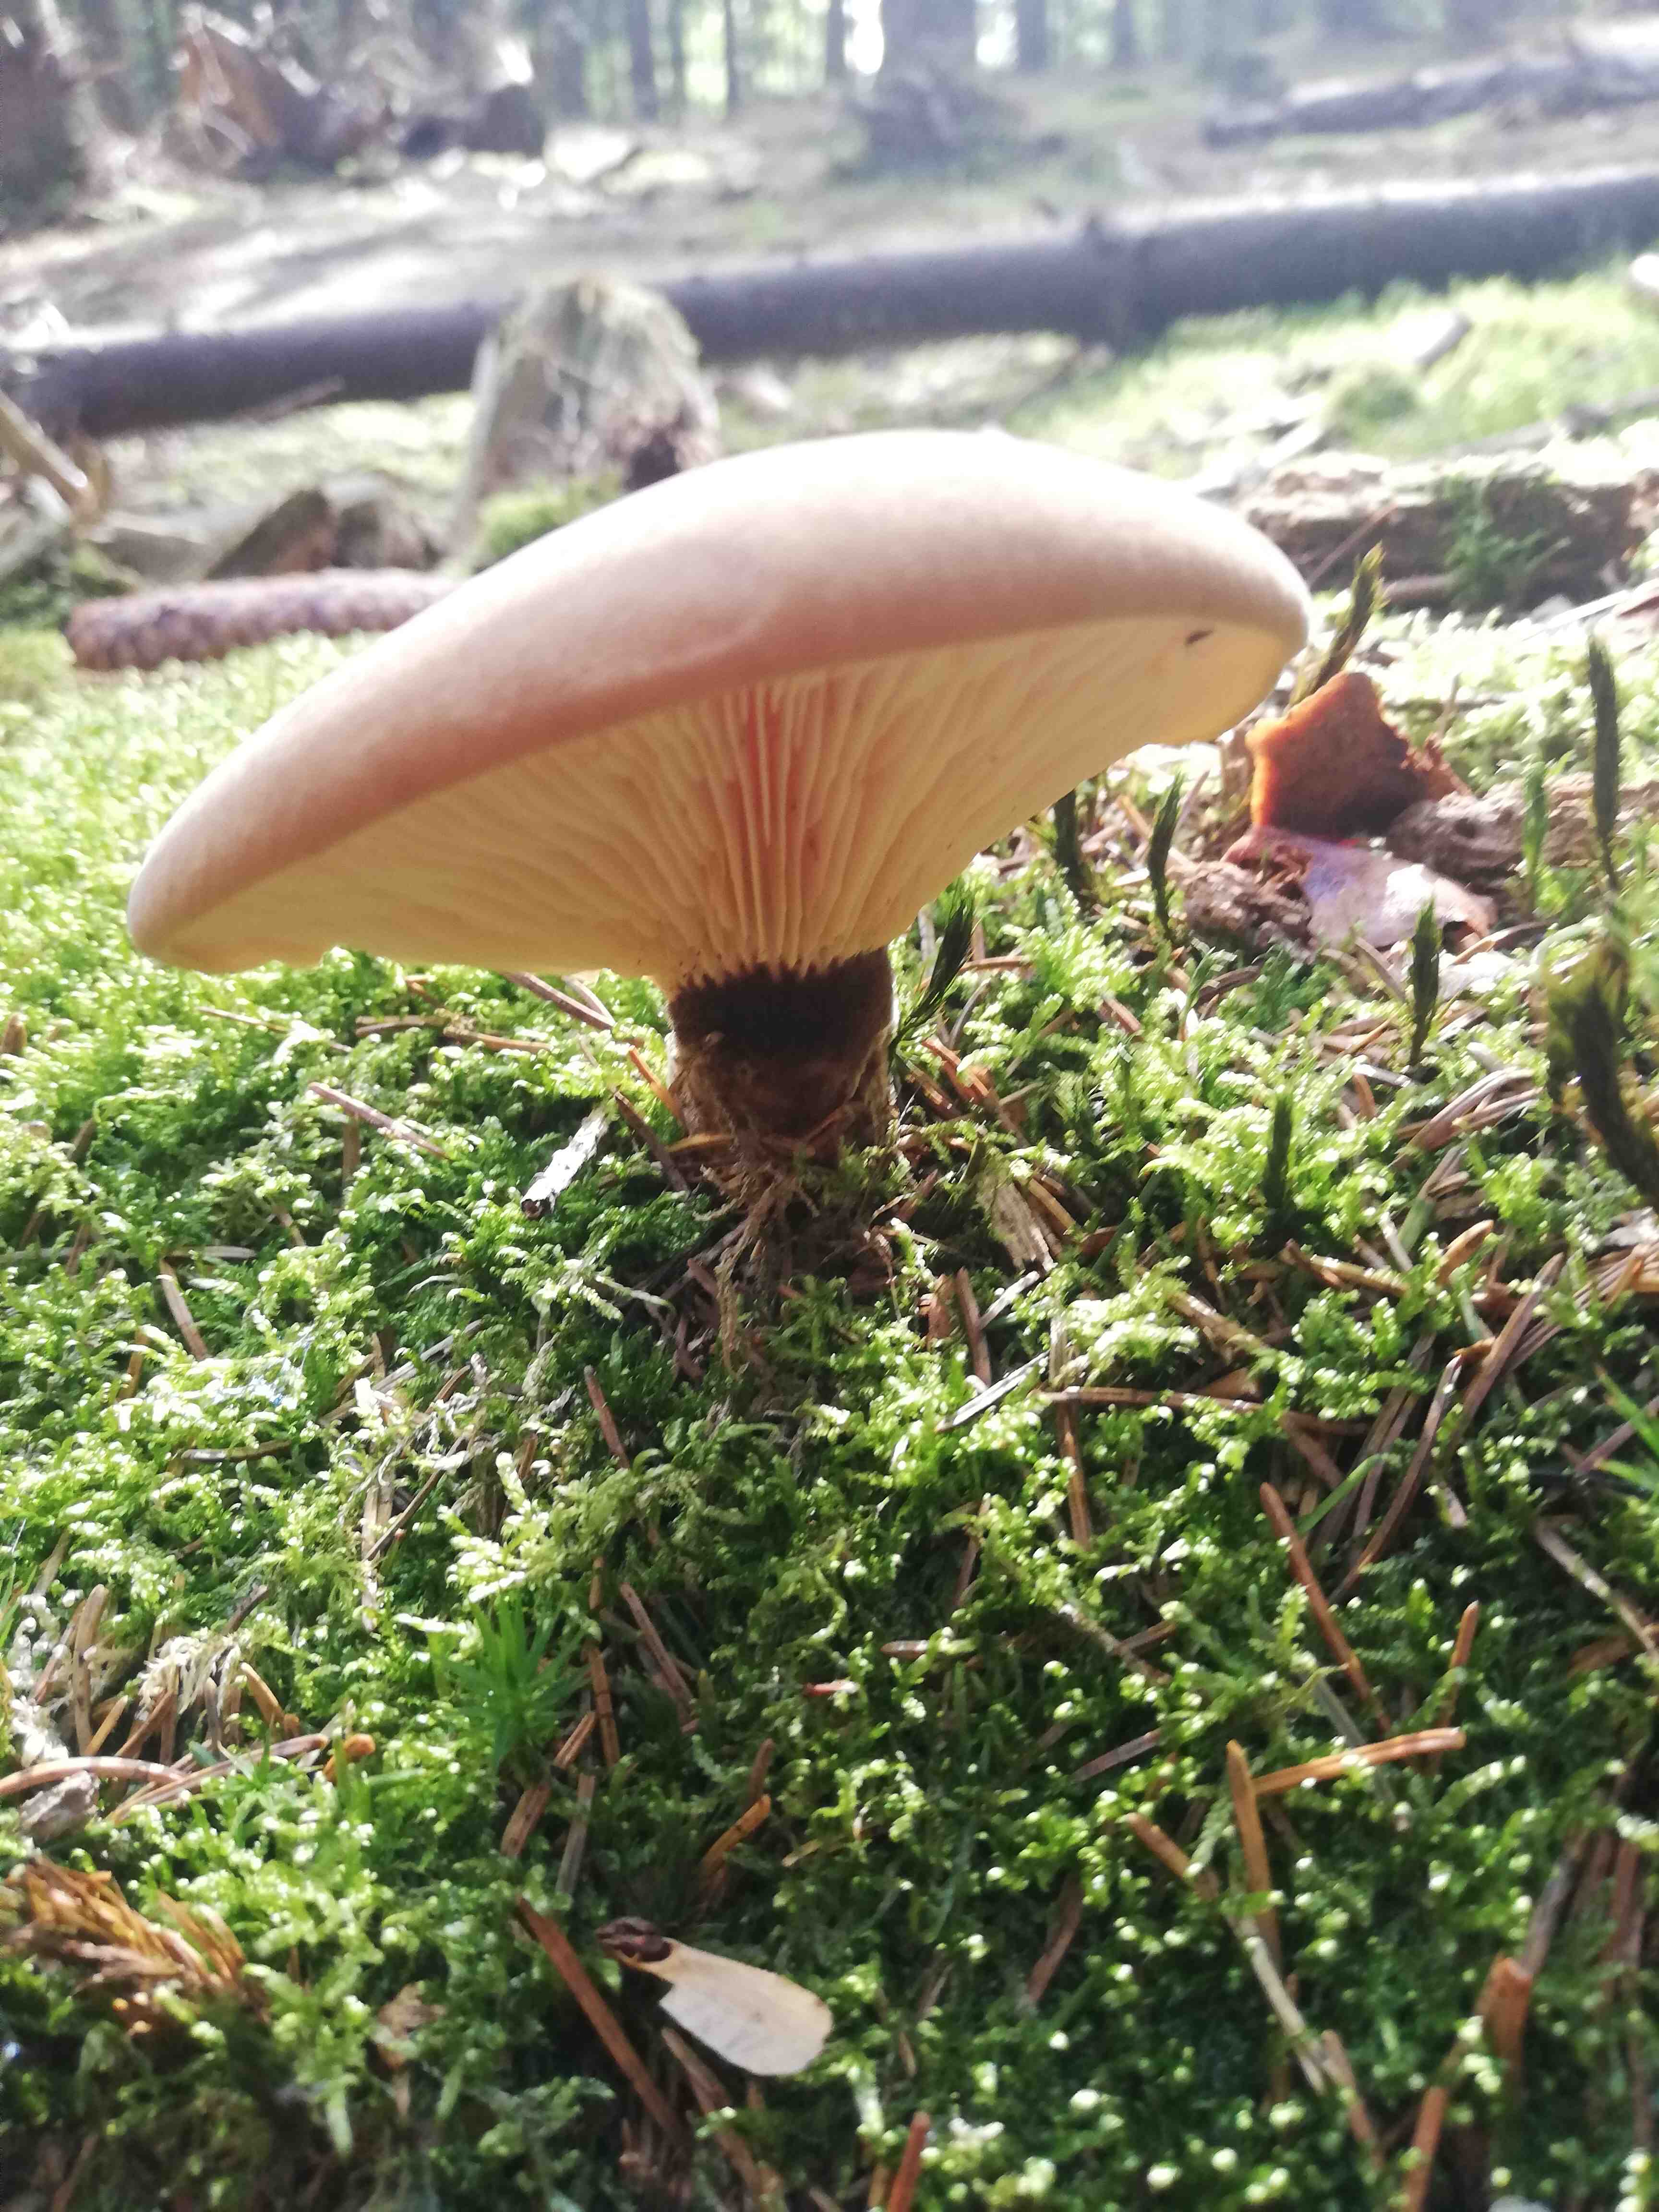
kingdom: Fungi
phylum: Basidiomycota
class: Agaricomycetes
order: Boletales
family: Tapinellaceae
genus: Tapinella
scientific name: Tapinella atrotomentosa
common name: sortfiltet viftesvamp
